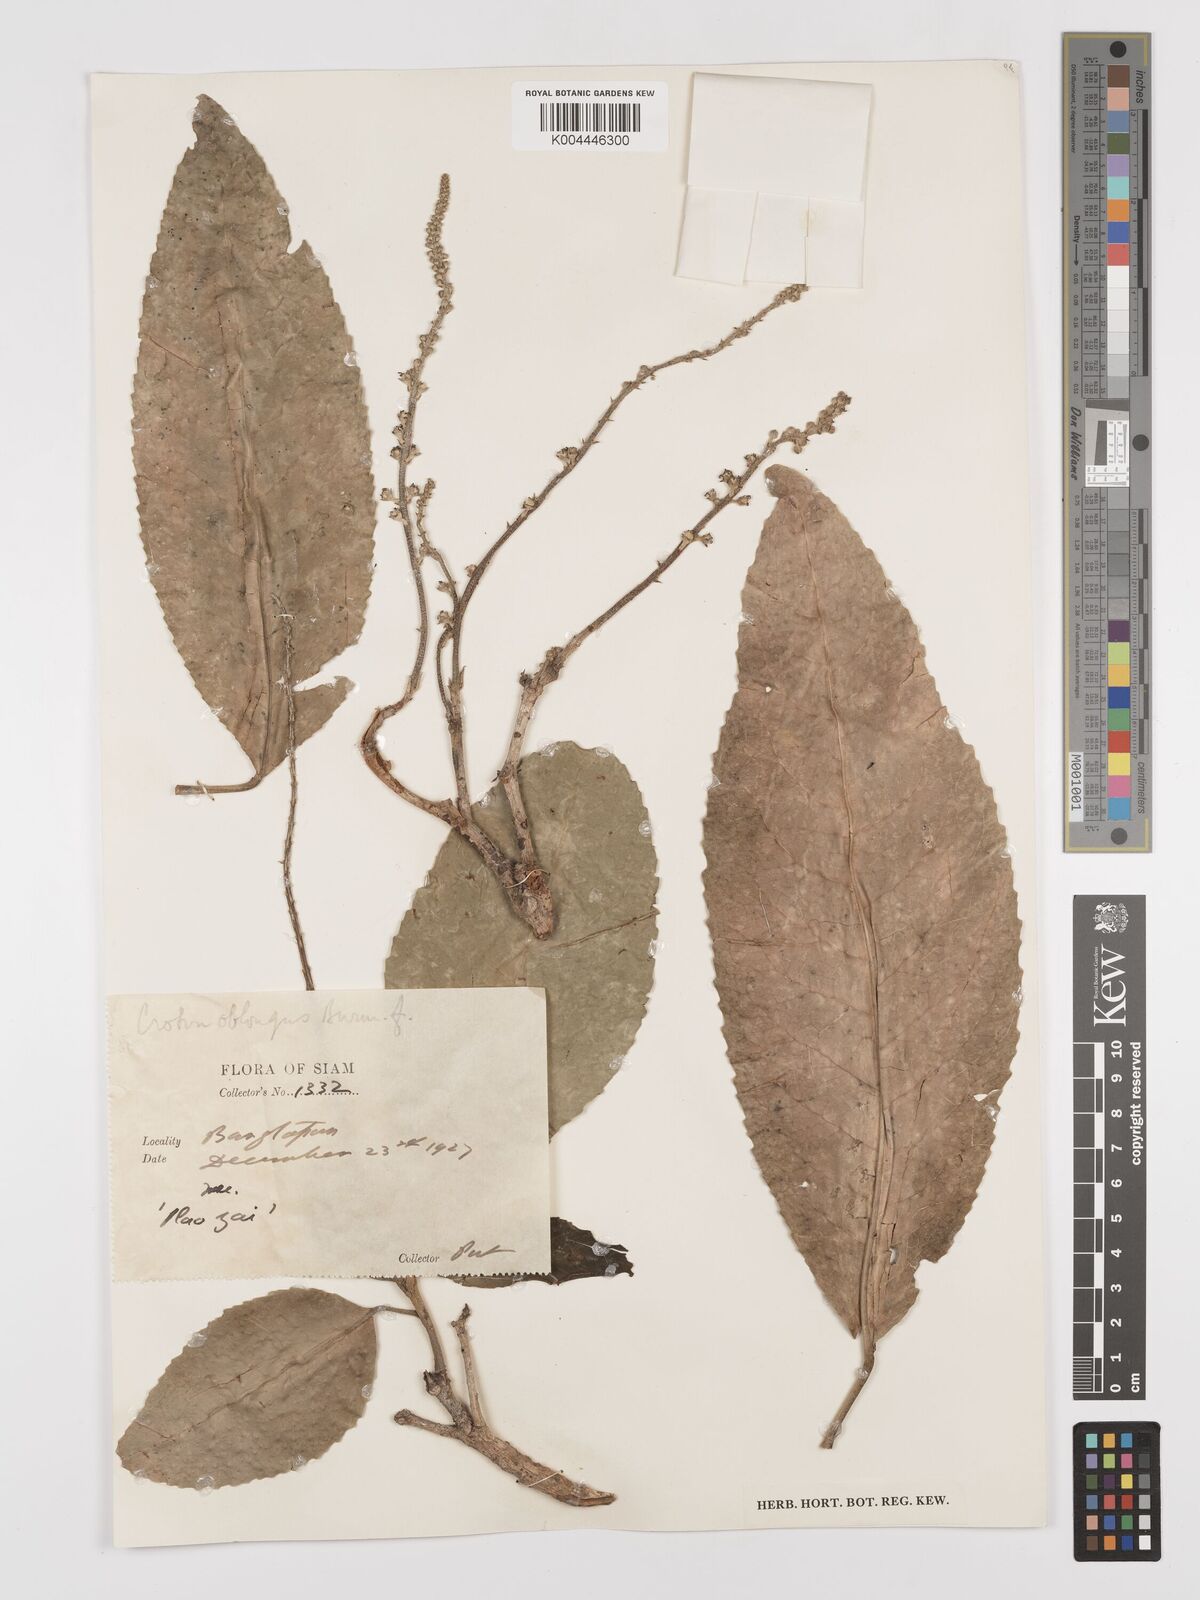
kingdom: Plantae
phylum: Tracheophyta
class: Magnoliopsida
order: Malpighiales
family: Euphorbiaceae
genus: Croton
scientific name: Croton
